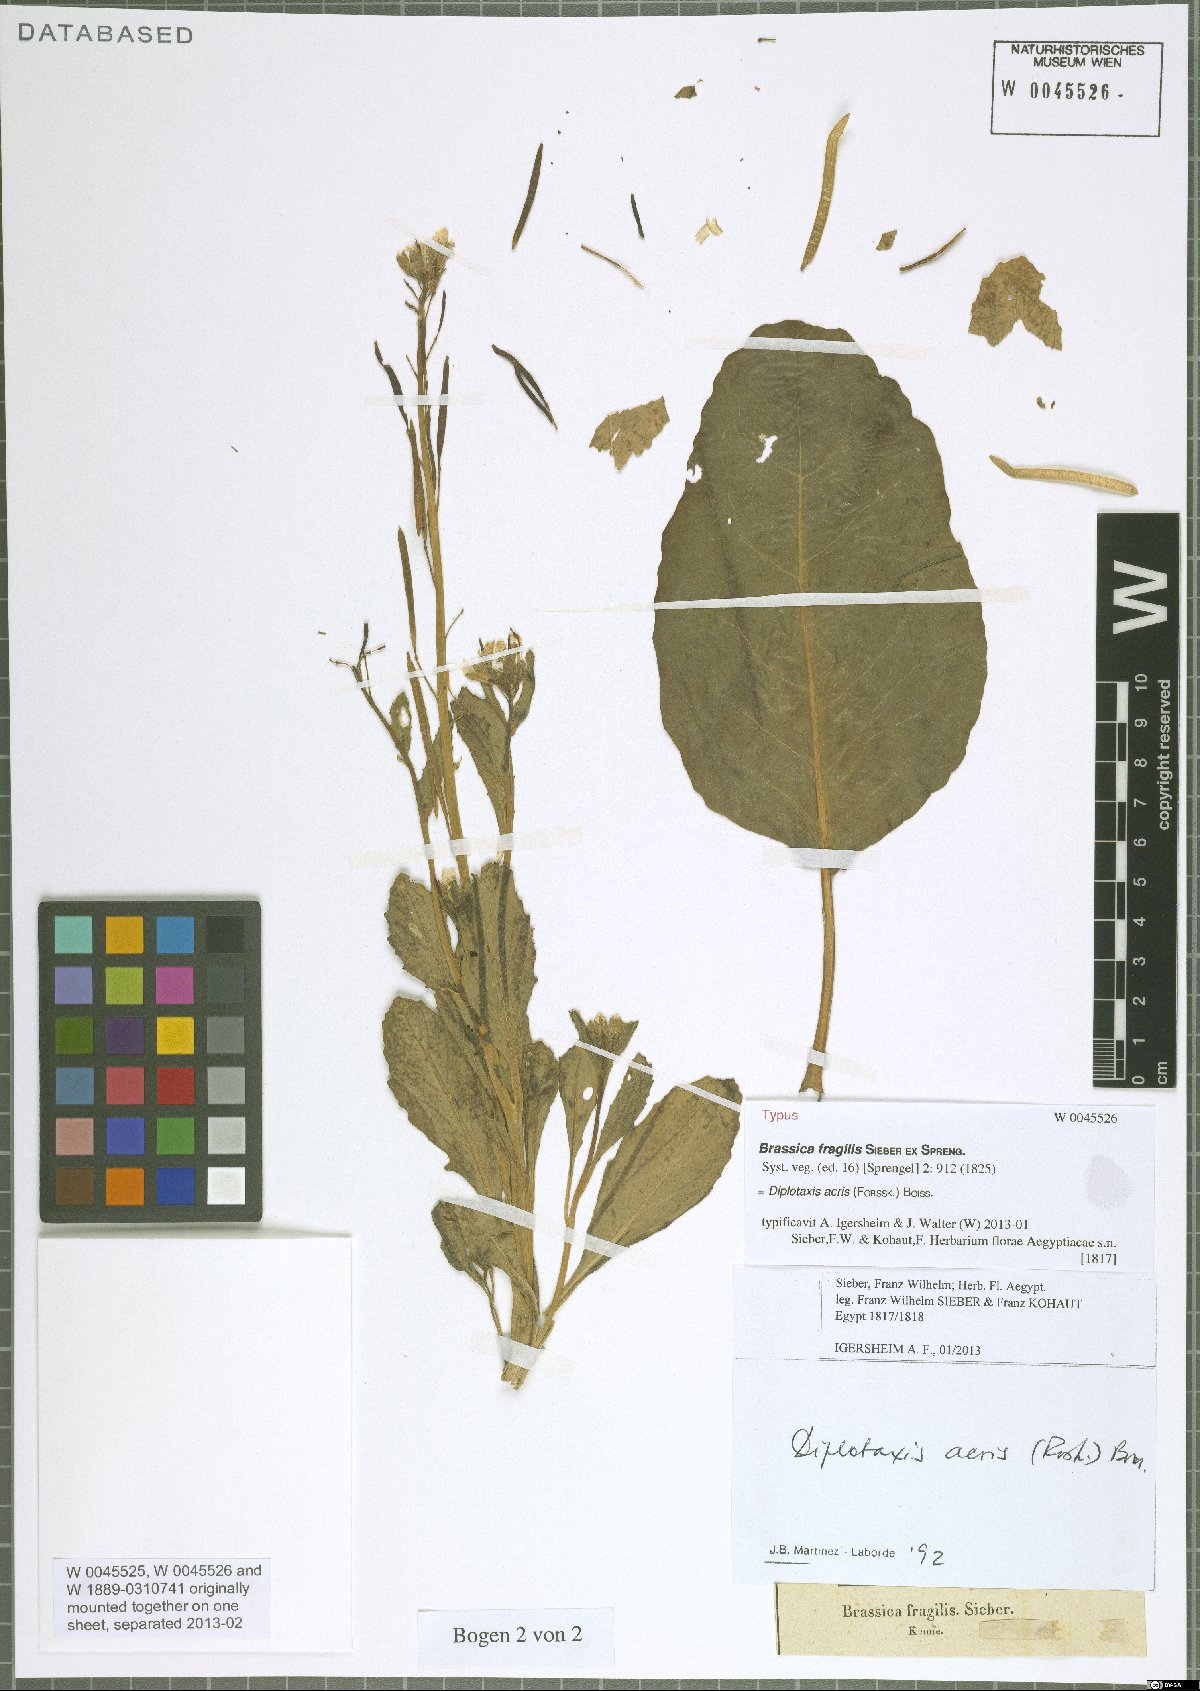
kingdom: Plantae
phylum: Tracheophyta
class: Magnoliopsida
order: Brassicales
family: Brassicaceae
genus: Diplotaxis
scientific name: Diplotaxis acris
